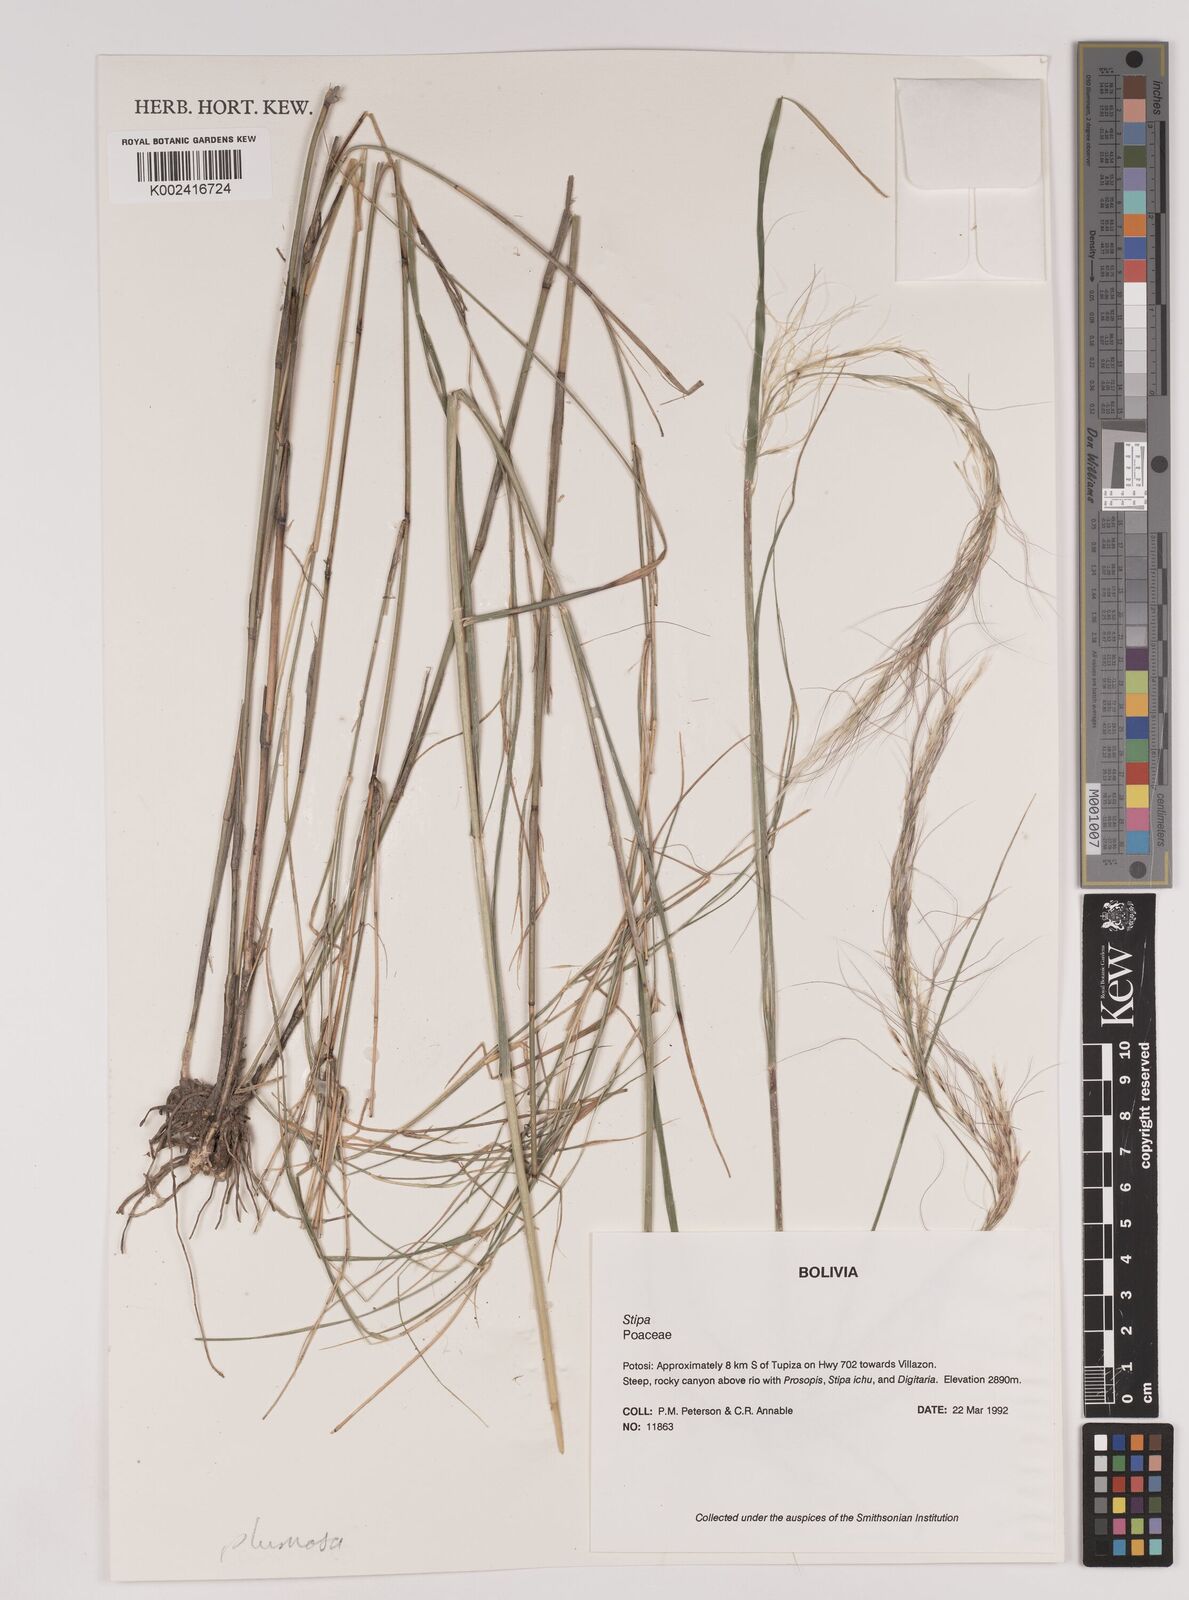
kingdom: Plantae
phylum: Tracheophyta
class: Liliopsida
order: Poales
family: Poaceae
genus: Stipa
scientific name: Stipa plumosa
